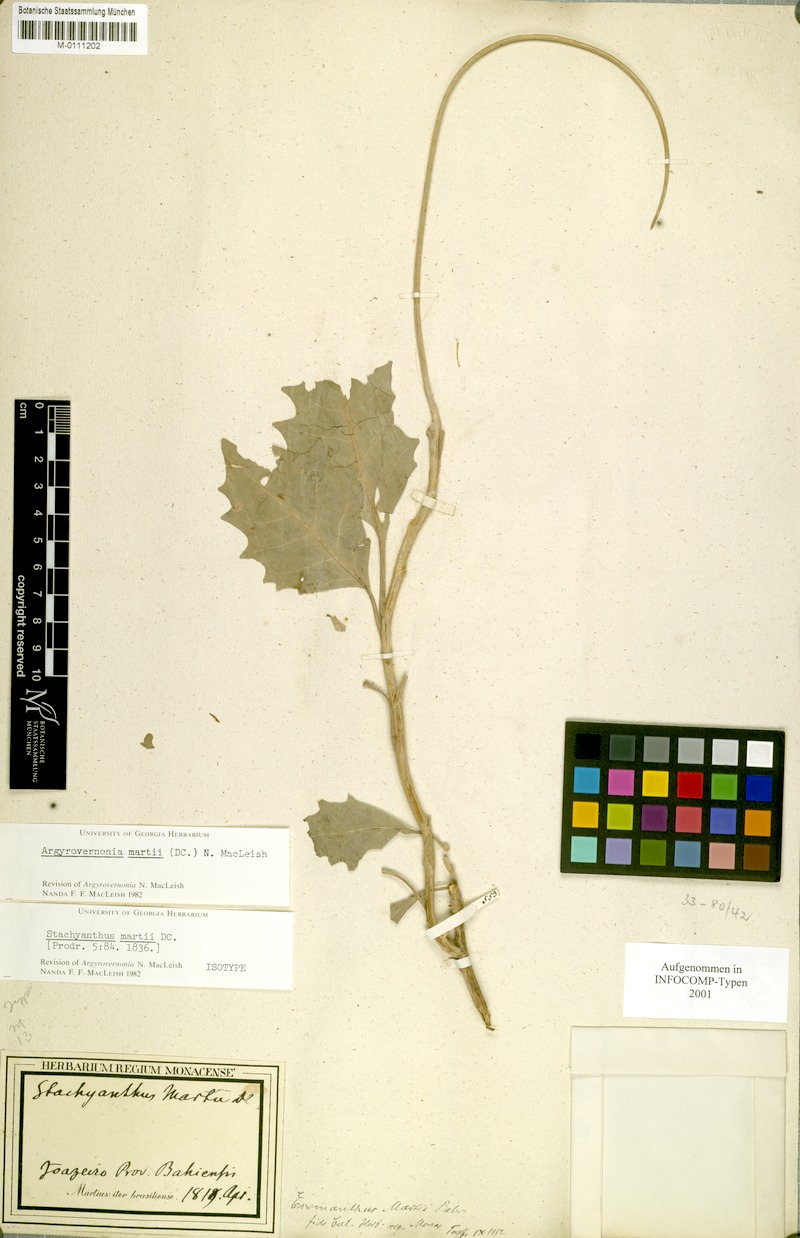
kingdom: Plantae
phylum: Tracheophyta
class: Magnoliopsida
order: Asterales
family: Asteraceae
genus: Chresta
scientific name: Chresta martii
